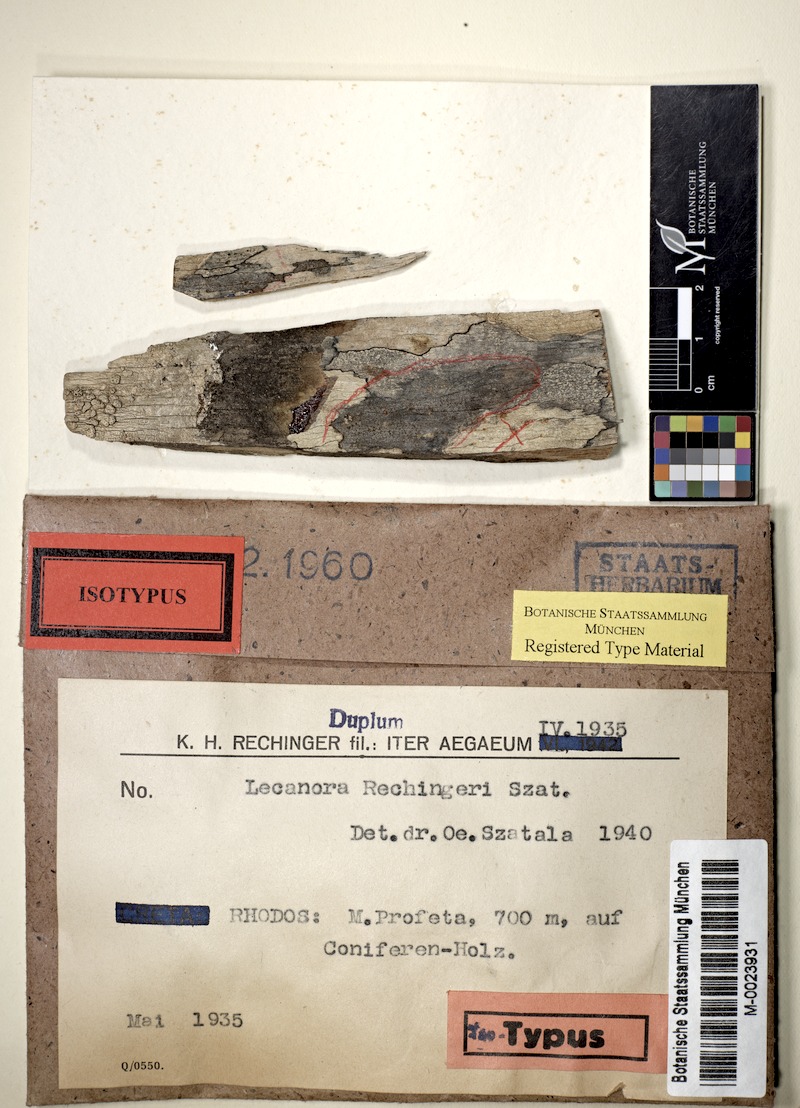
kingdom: Fungi
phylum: Ascomycota
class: Lecanoromycetes
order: Lecanorales
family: Lecanoraceae
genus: Lecanora
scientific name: Lecanora
